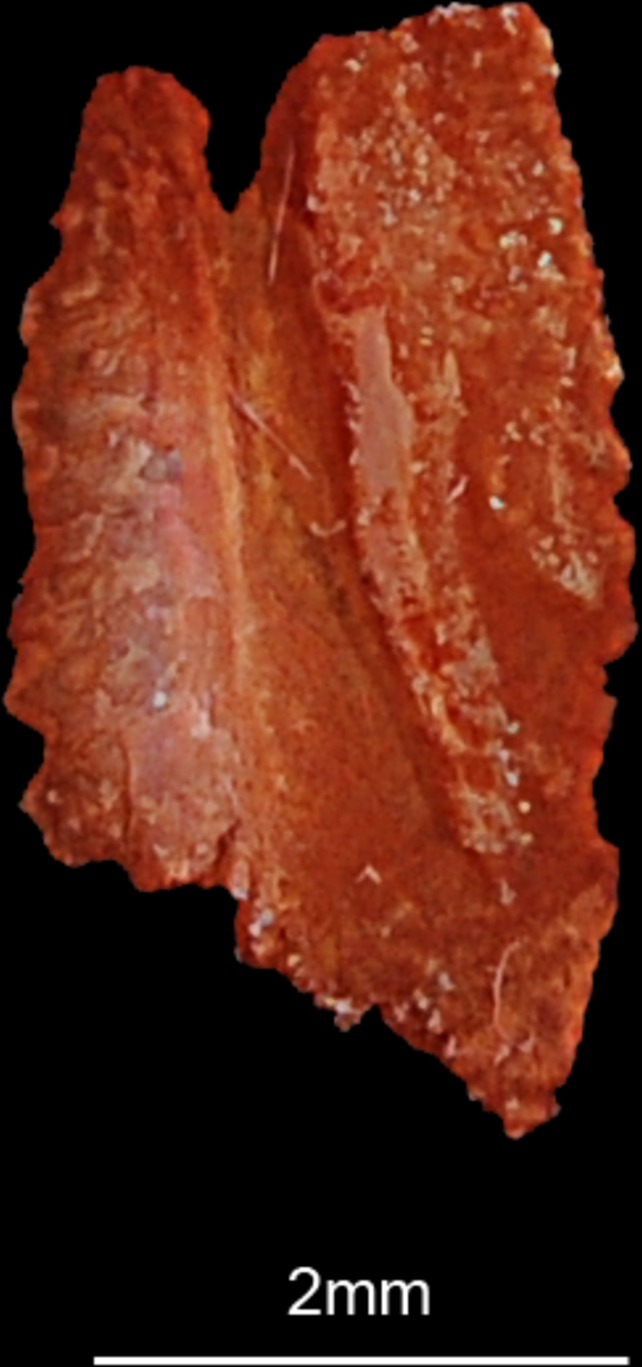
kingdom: Animalia
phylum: Chordata
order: Perciformes
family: Stromateidae
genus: Pampus
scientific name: Pampus argenteus
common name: Silver pomfret
